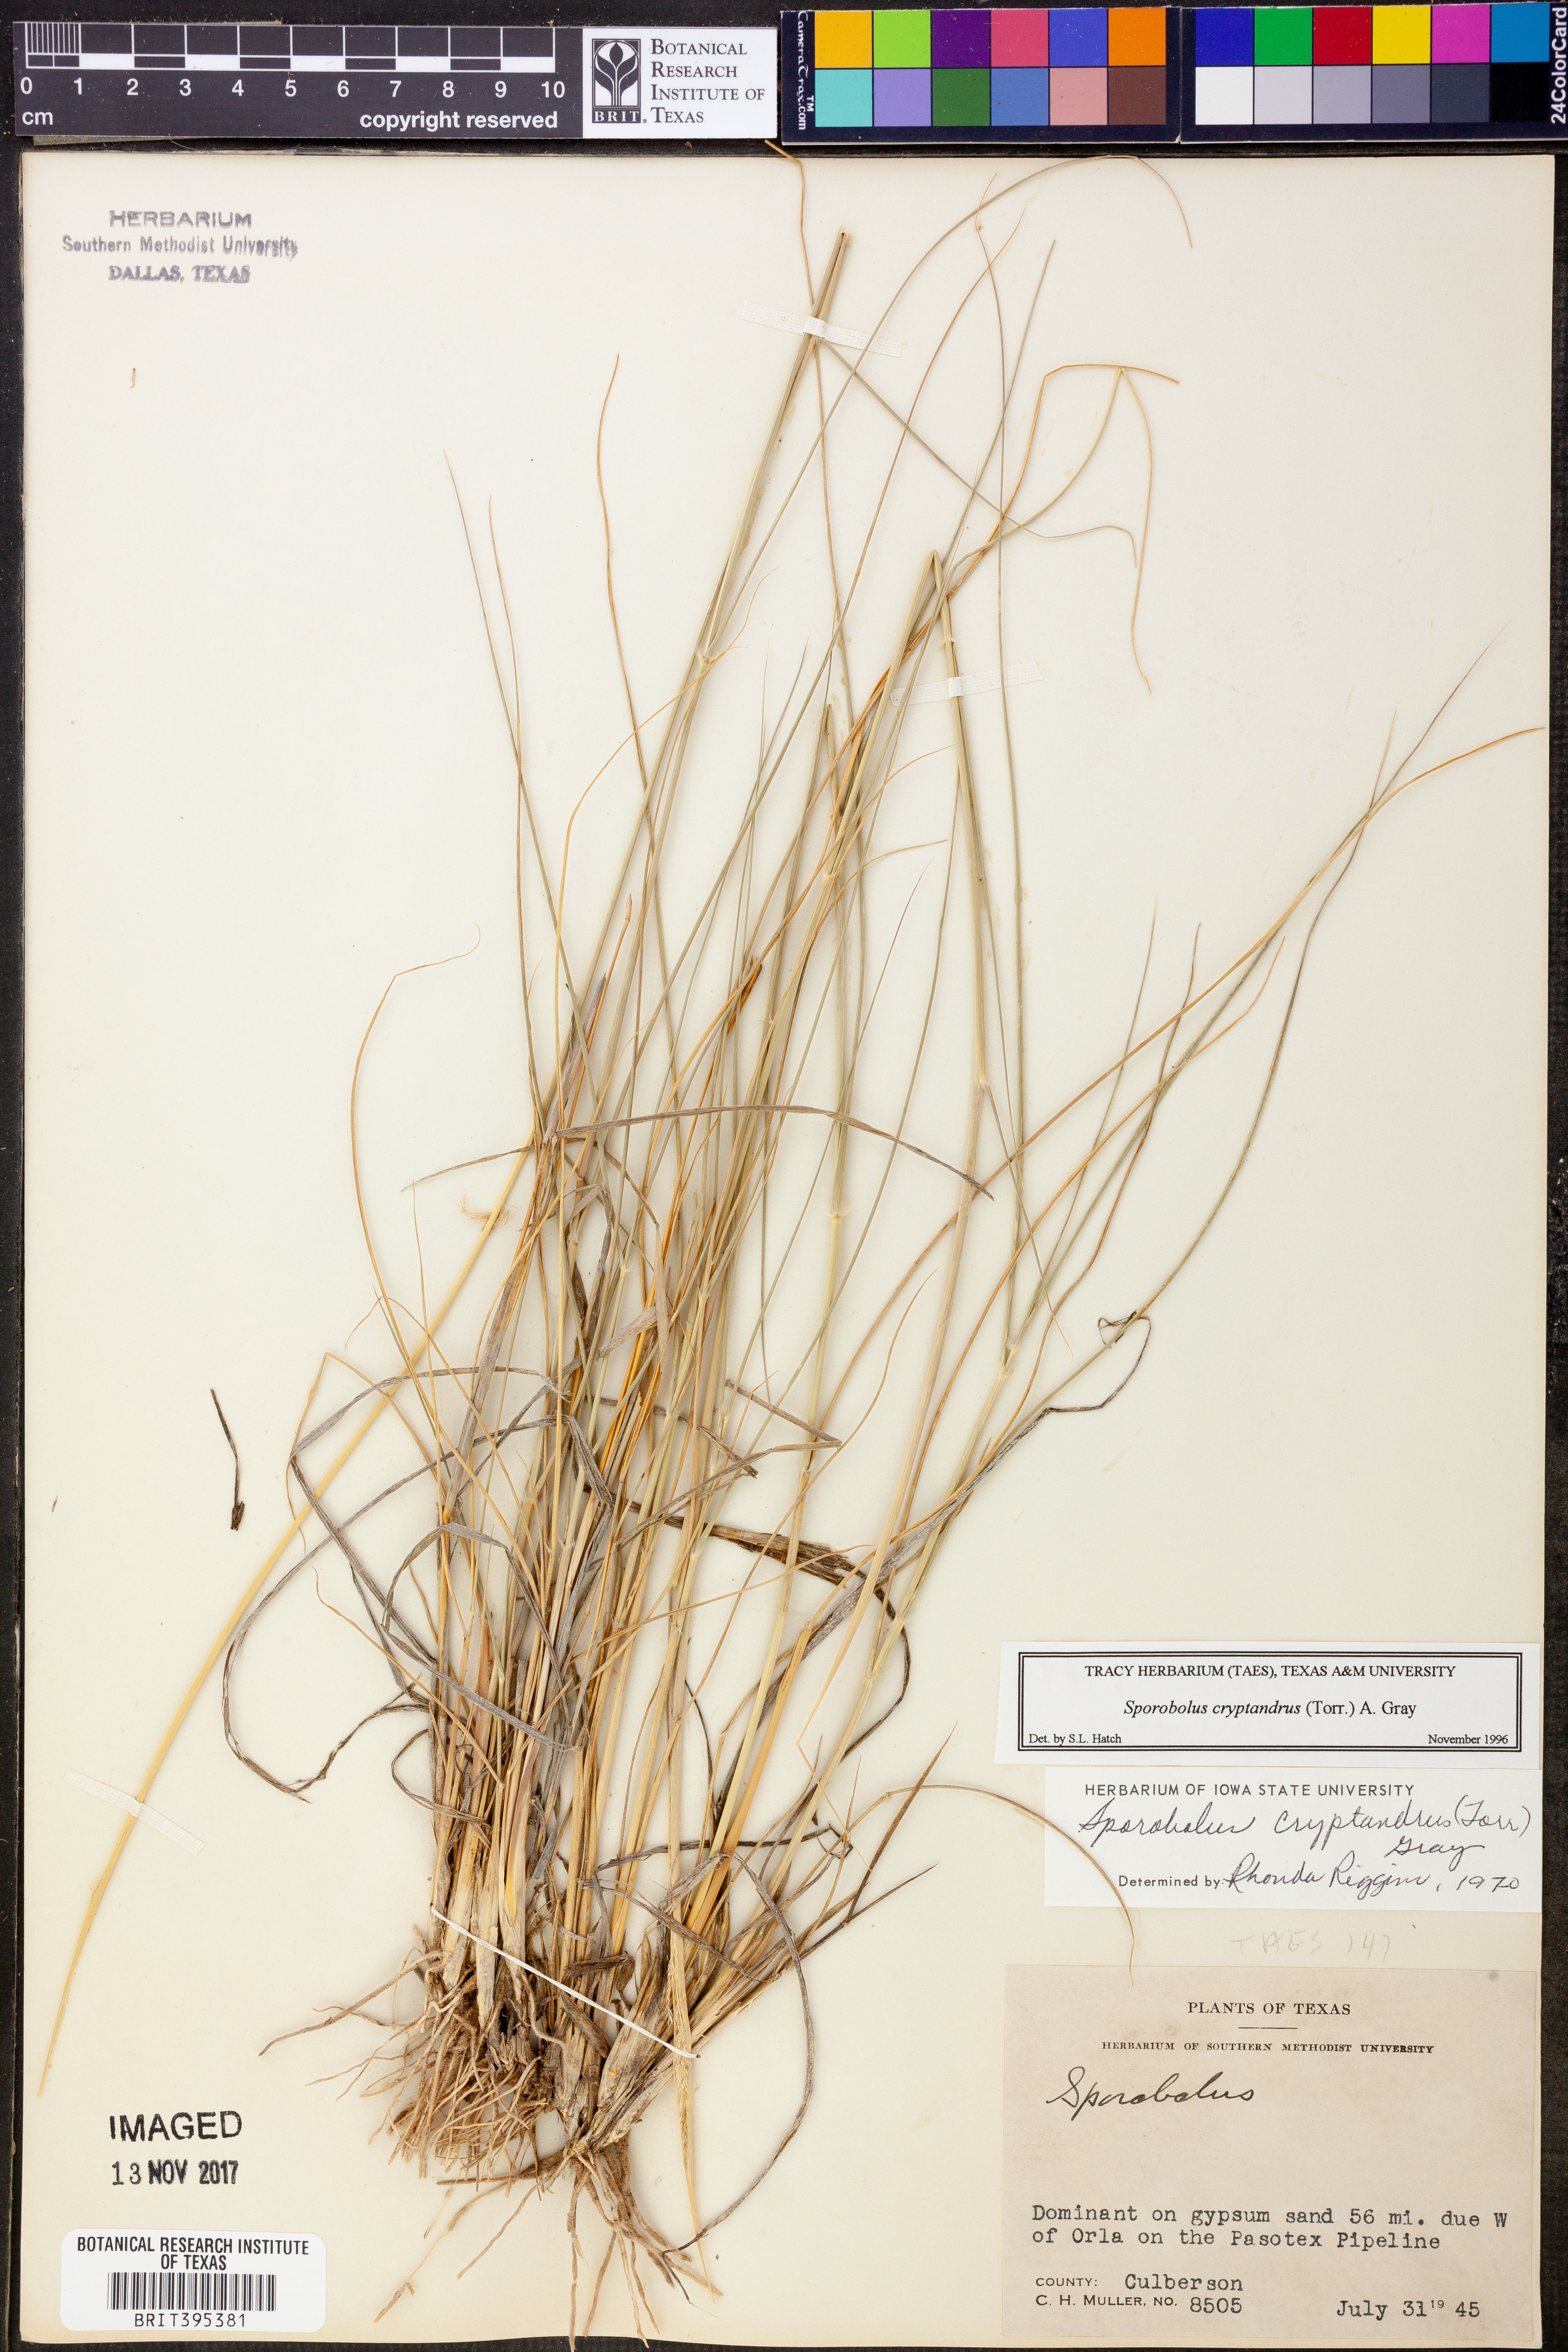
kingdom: Plantae
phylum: Tracheophyta
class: Liliopsida
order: Poales
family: Poaceae
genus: Sporobolus
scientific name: Sporobolus cryptandrus
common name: Sand dropseed
